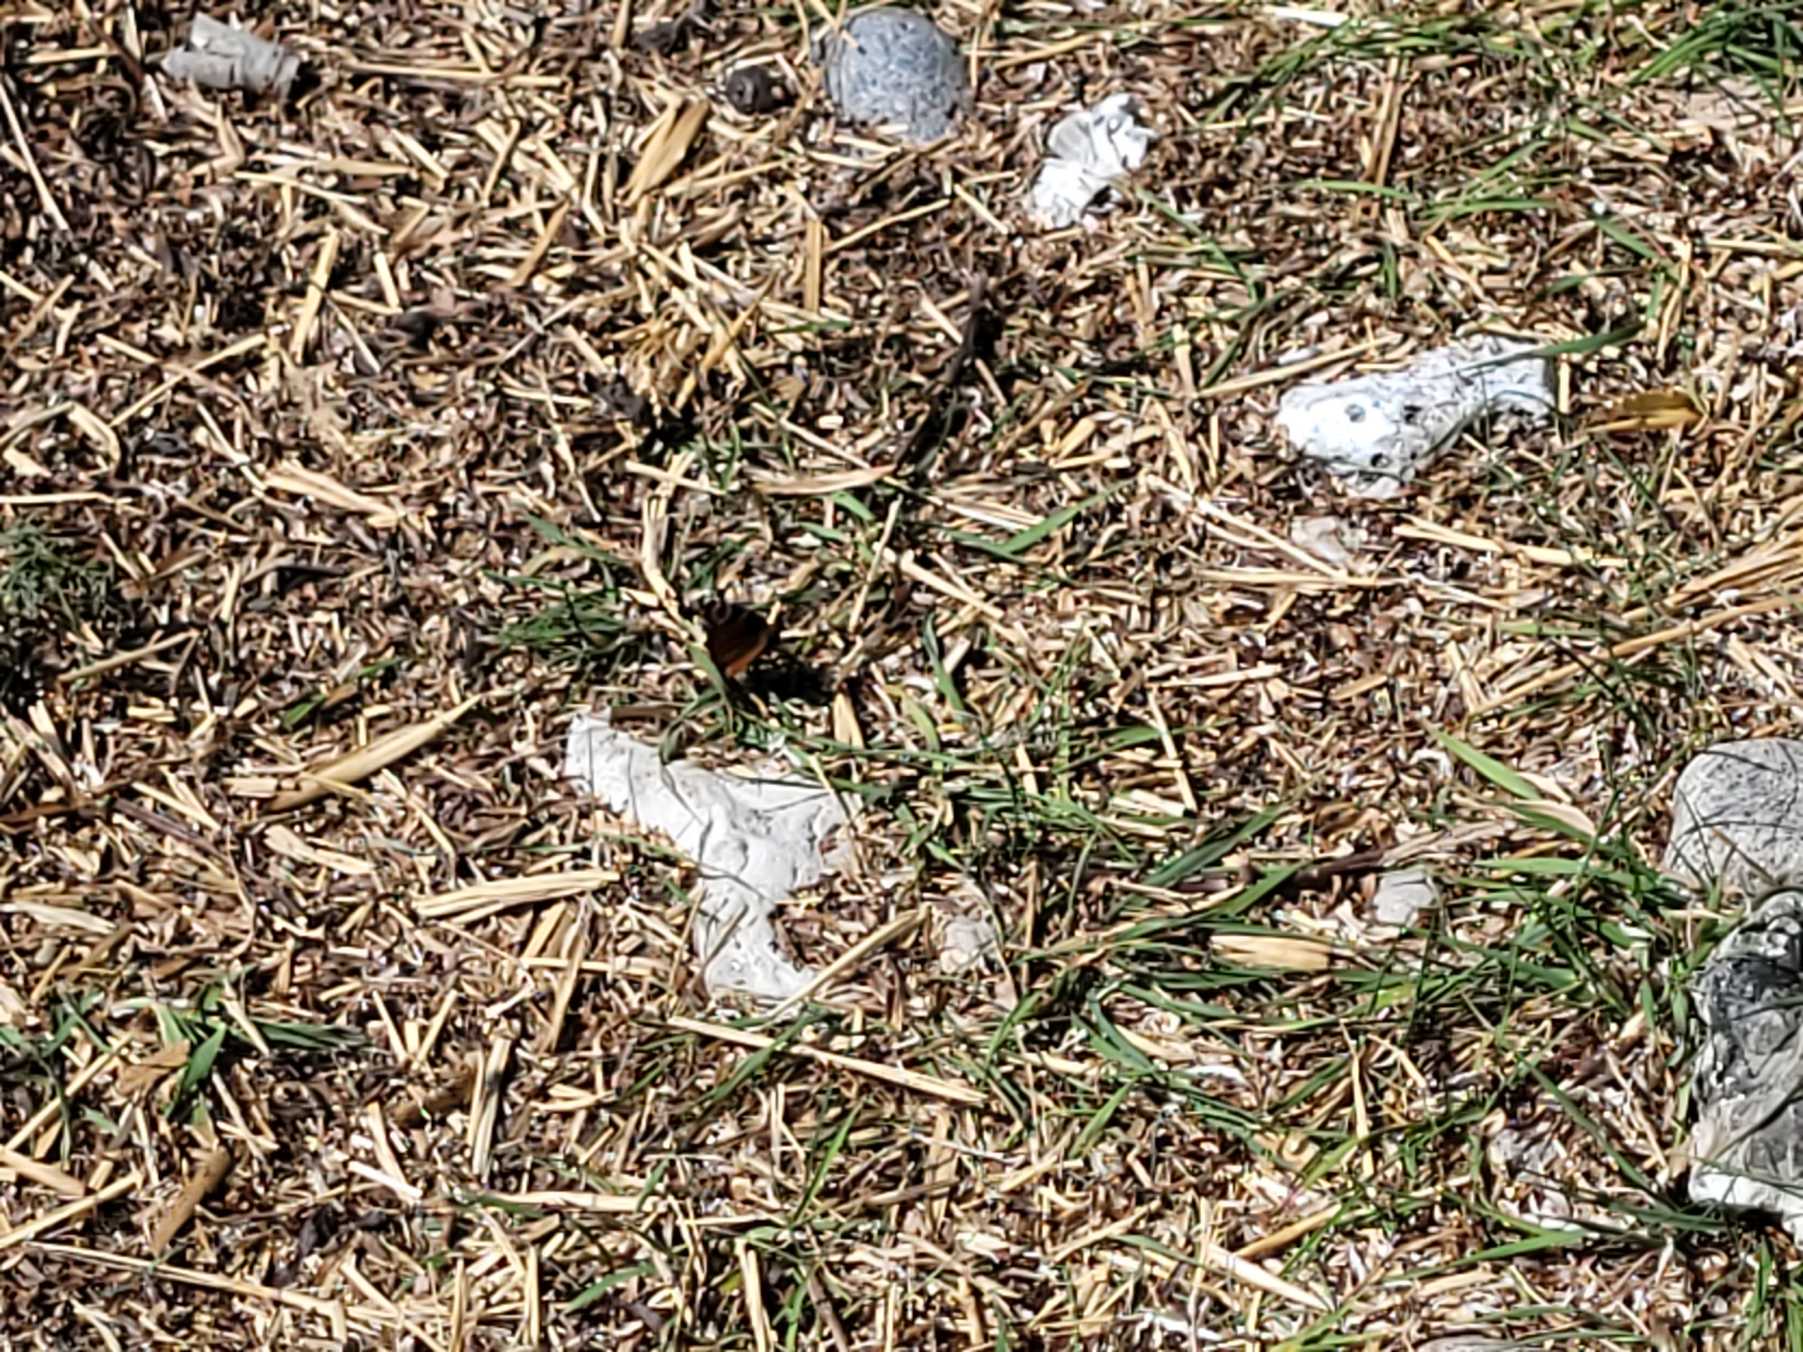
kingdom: Animalia
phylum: Arthropoda
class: Insecta
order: Lepidoptera
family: Nymphalidae
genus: Aglais
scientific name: Aglais io
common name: Dagpåfugleøje
